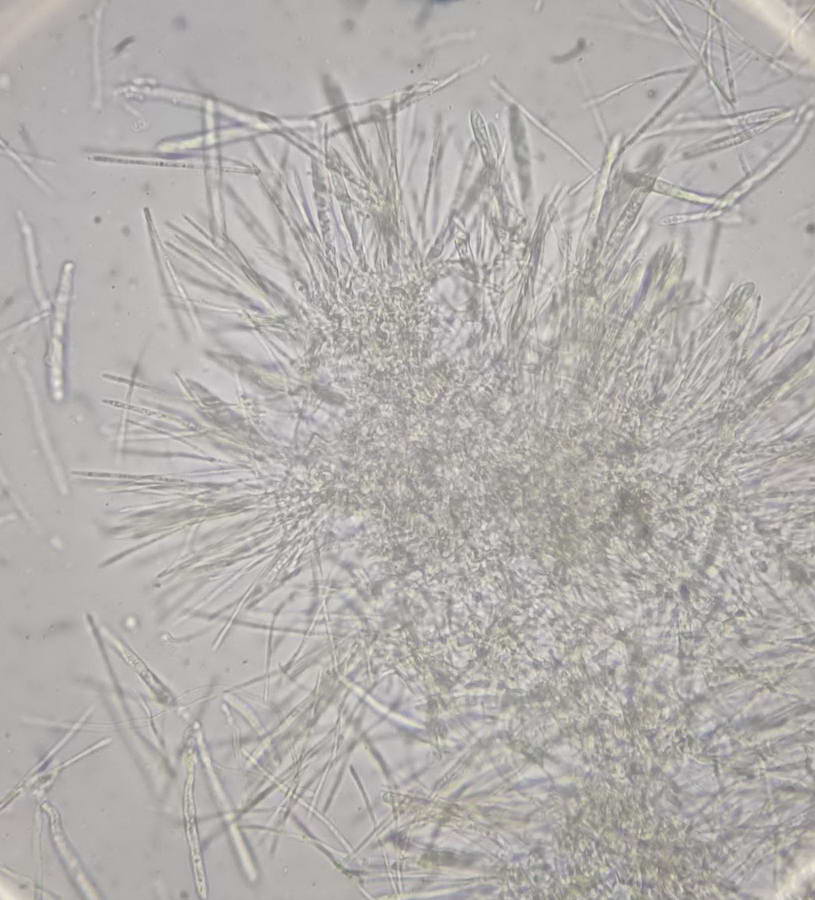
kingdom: Fungi
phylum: Ascomycota
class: Leotiomycetes
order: Helotiales
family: Lachnaceae
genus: Lachnellula
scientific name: Lachnellula subtilissima
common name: gran-frynseskive
